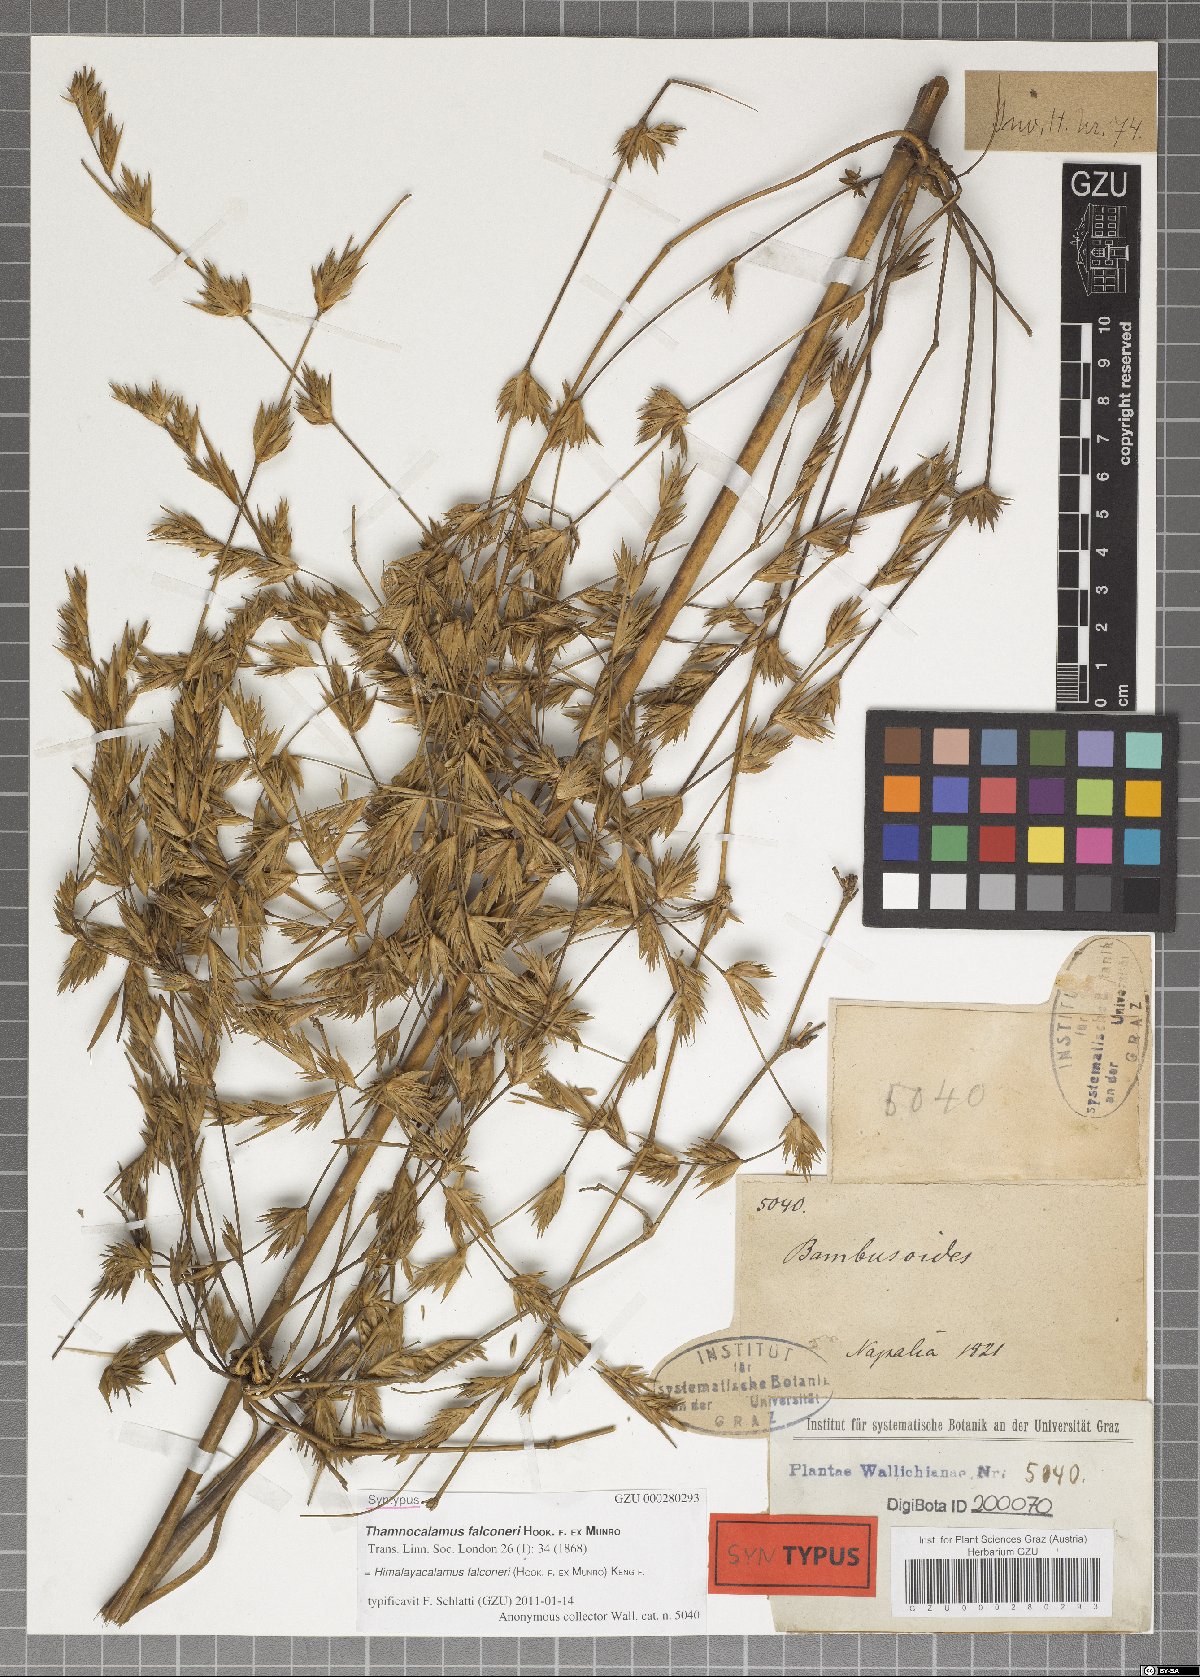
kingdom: Plantae
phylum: Tracheophyta
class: Liliopsida
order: Poales
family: Poaceae
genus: Himalayacalamus
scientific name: Himalayacalamus falconeri
